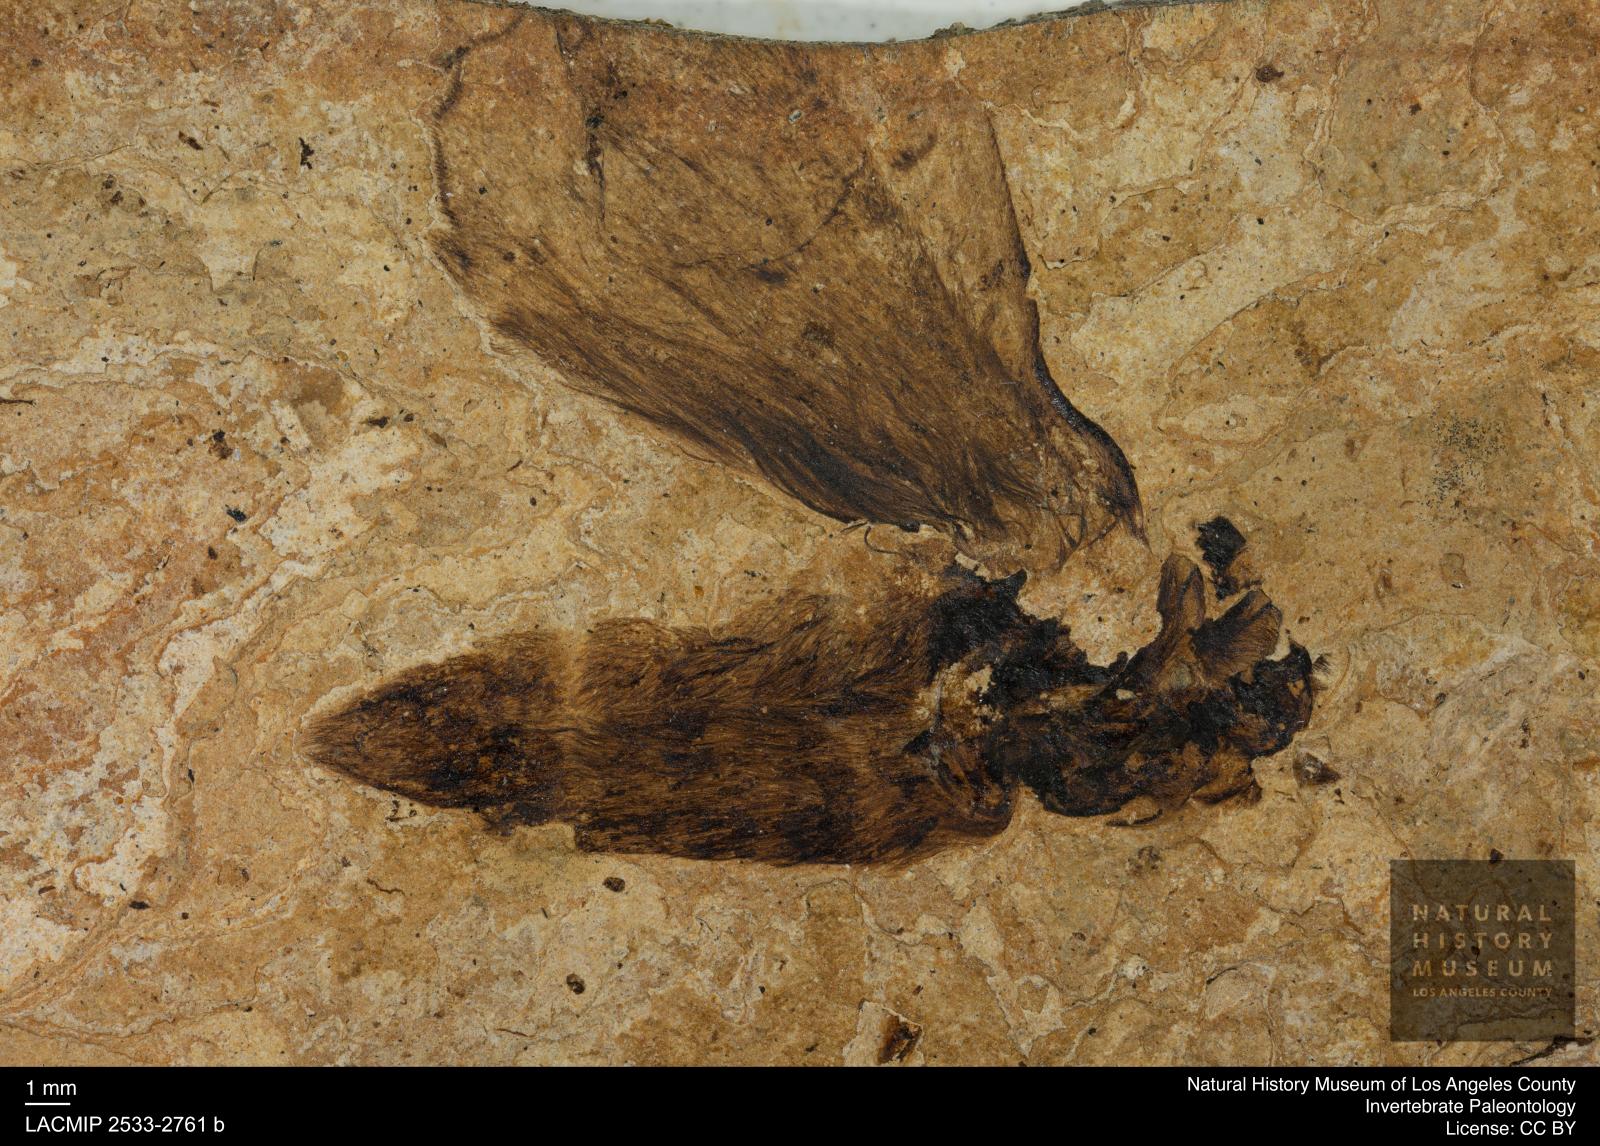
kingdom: Animalia
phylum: Arthropoda
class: Insecta
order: Lepidoptera
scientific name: Lepidoptera
